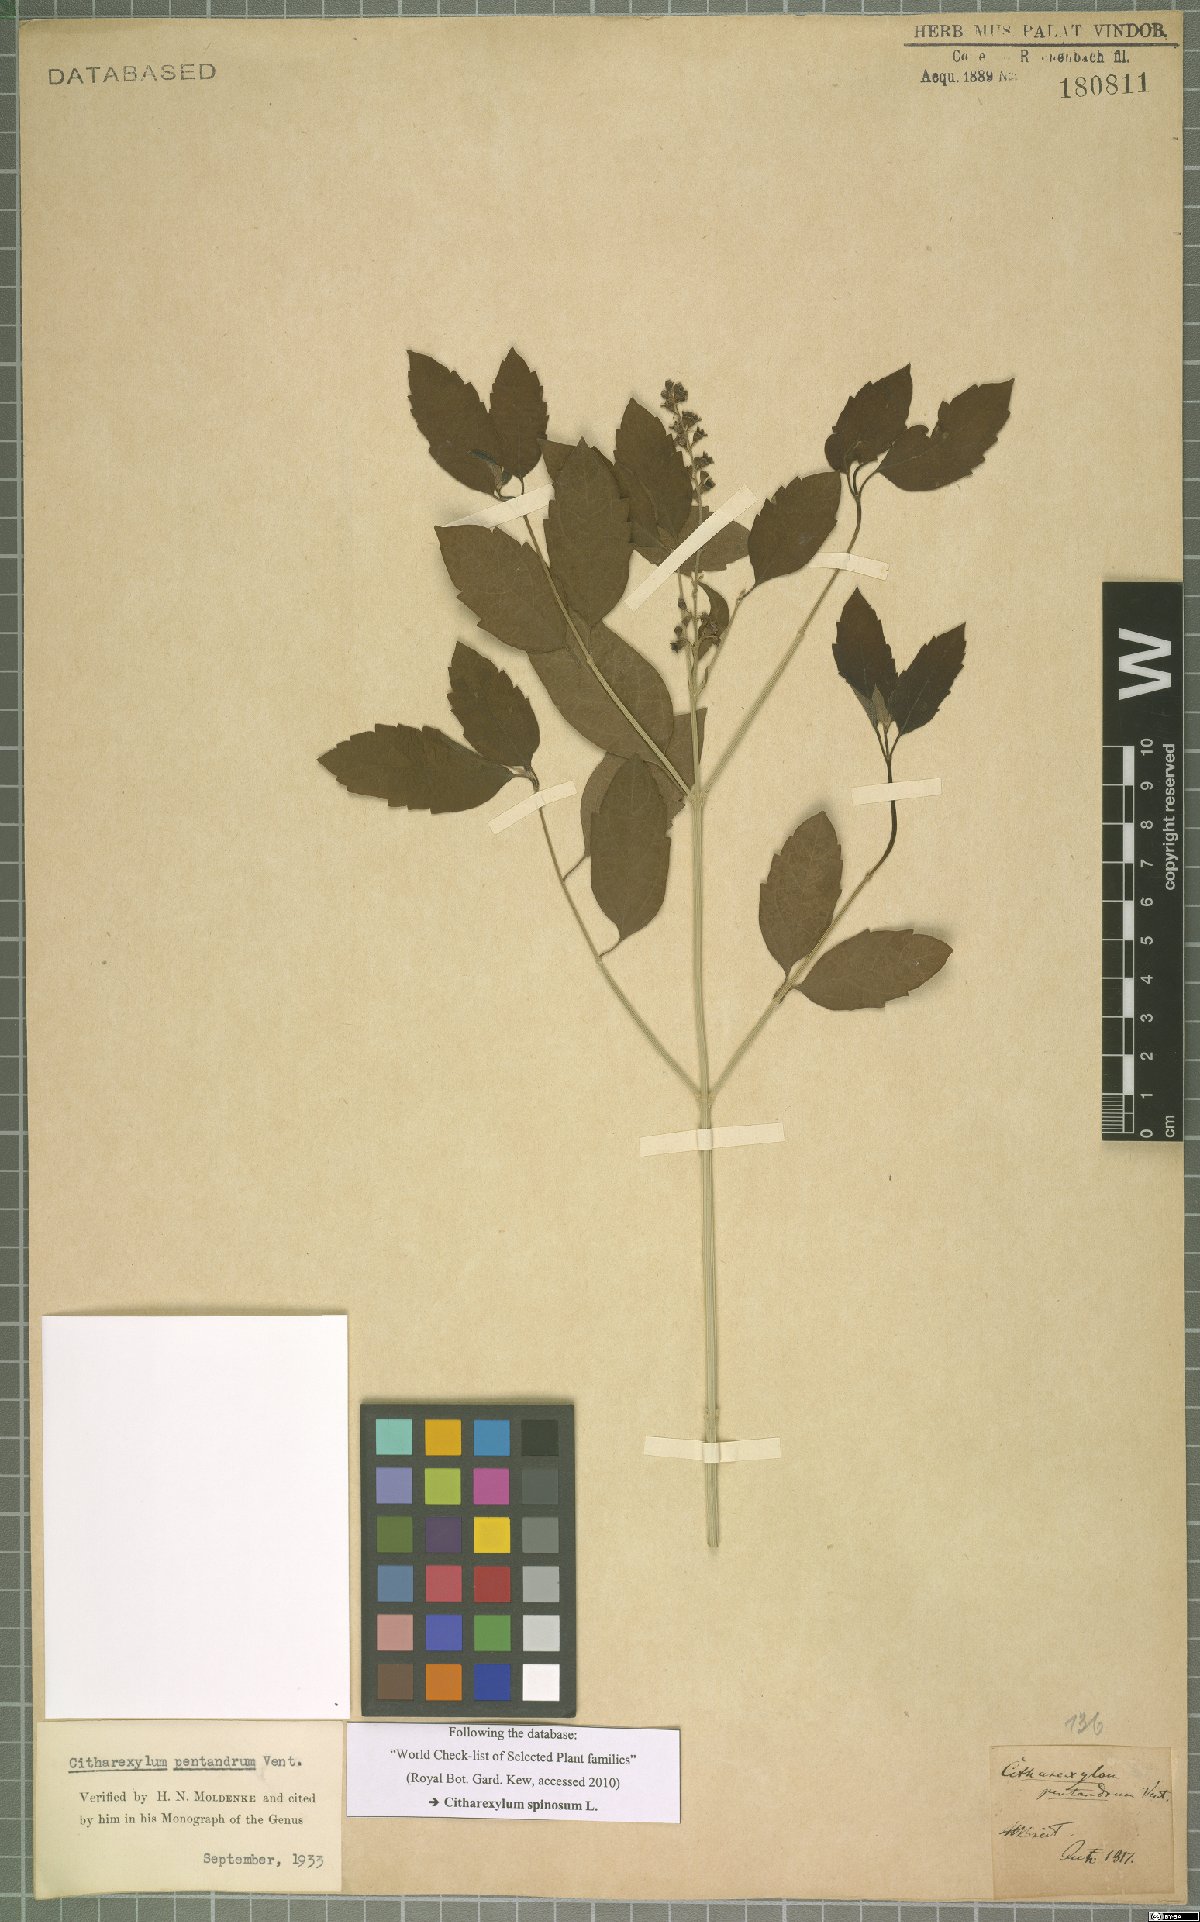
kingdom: Plantae
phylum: Tracheophyta
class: Magnoliopsida
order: Lamiales
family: Verbenaceae
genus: Citharexylum
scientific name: Citharexylum spinosum
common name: Fiddlewood
